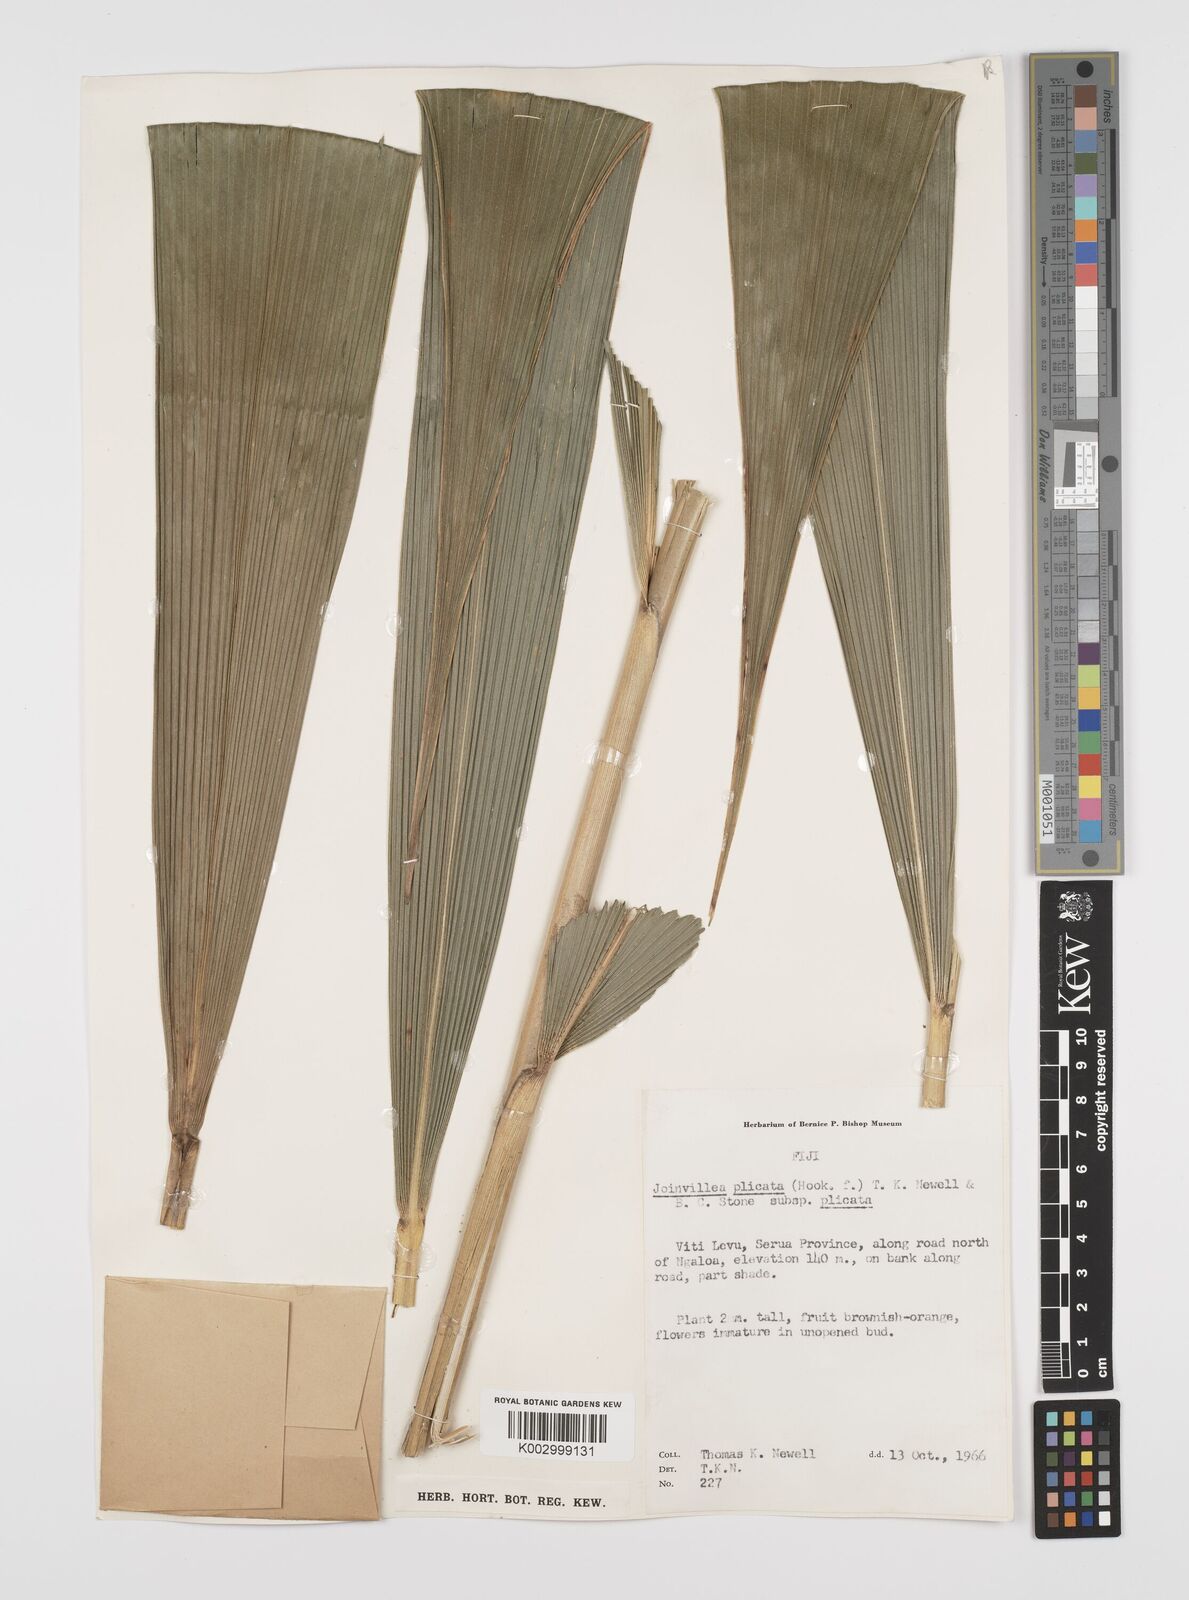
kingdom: Plantae
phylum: Tracheophyta
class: Liliopsida
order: Poales
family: Joinvilleaceae
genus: Joinvillea
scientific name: Joinvillea plicata
